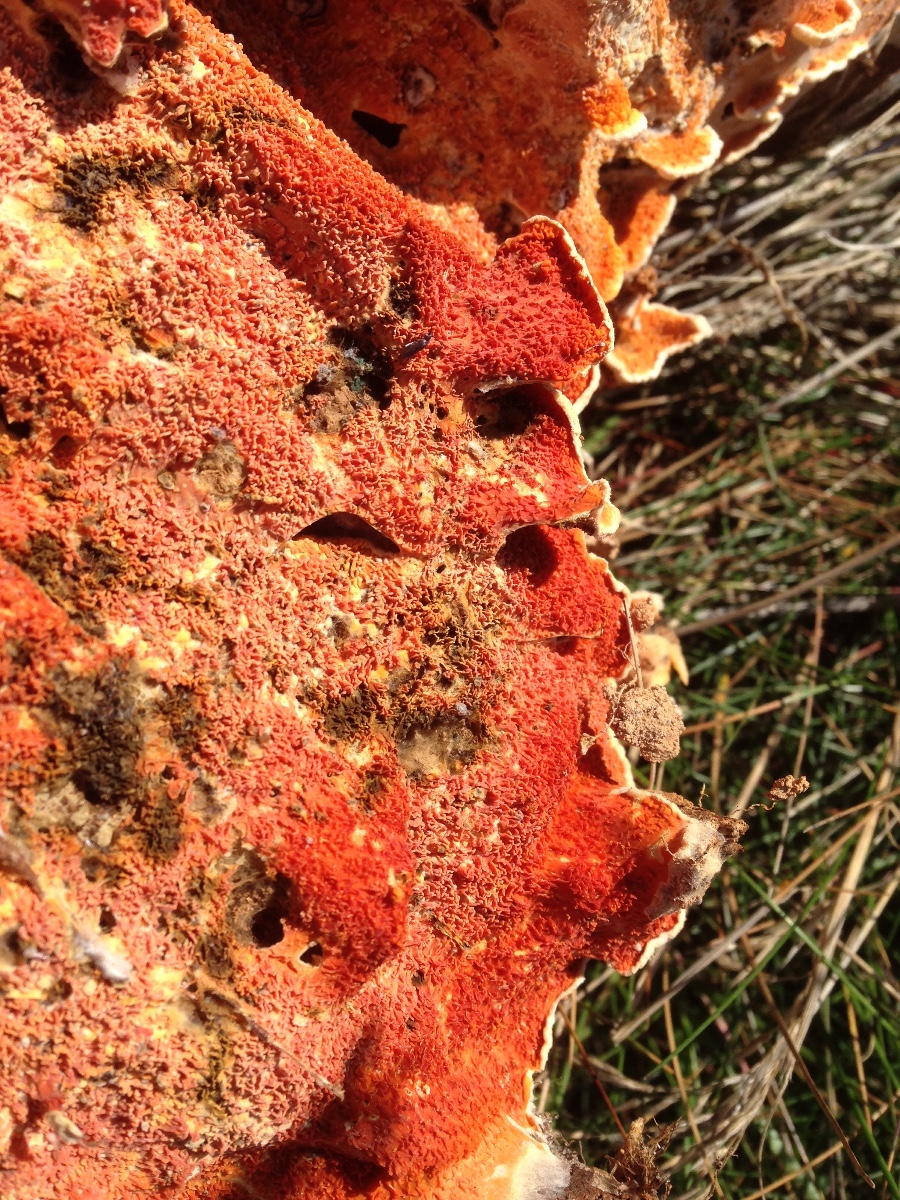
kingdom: Fungi
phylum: Basidiomycota
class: Agaricomycetes
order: Corticiales
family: Corticiaceae
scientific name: Corticiaceae
